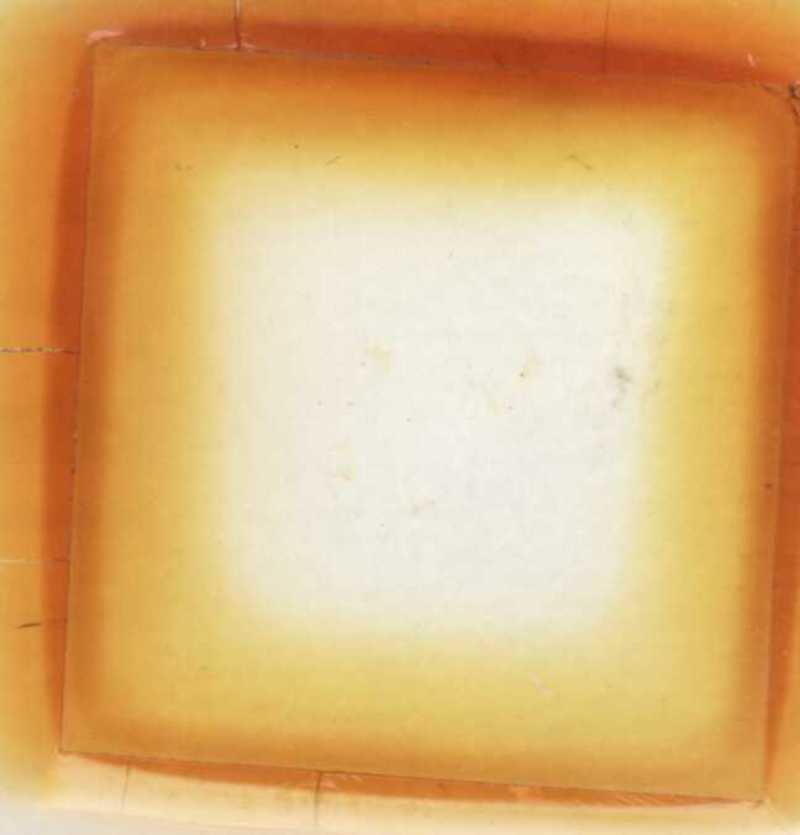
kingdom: Animalia
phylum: Arthropoda
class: Diplopoda
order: Glomerida
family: Glomeridae
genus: Trachysphaera
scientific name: Trachysphaera schmidtii
